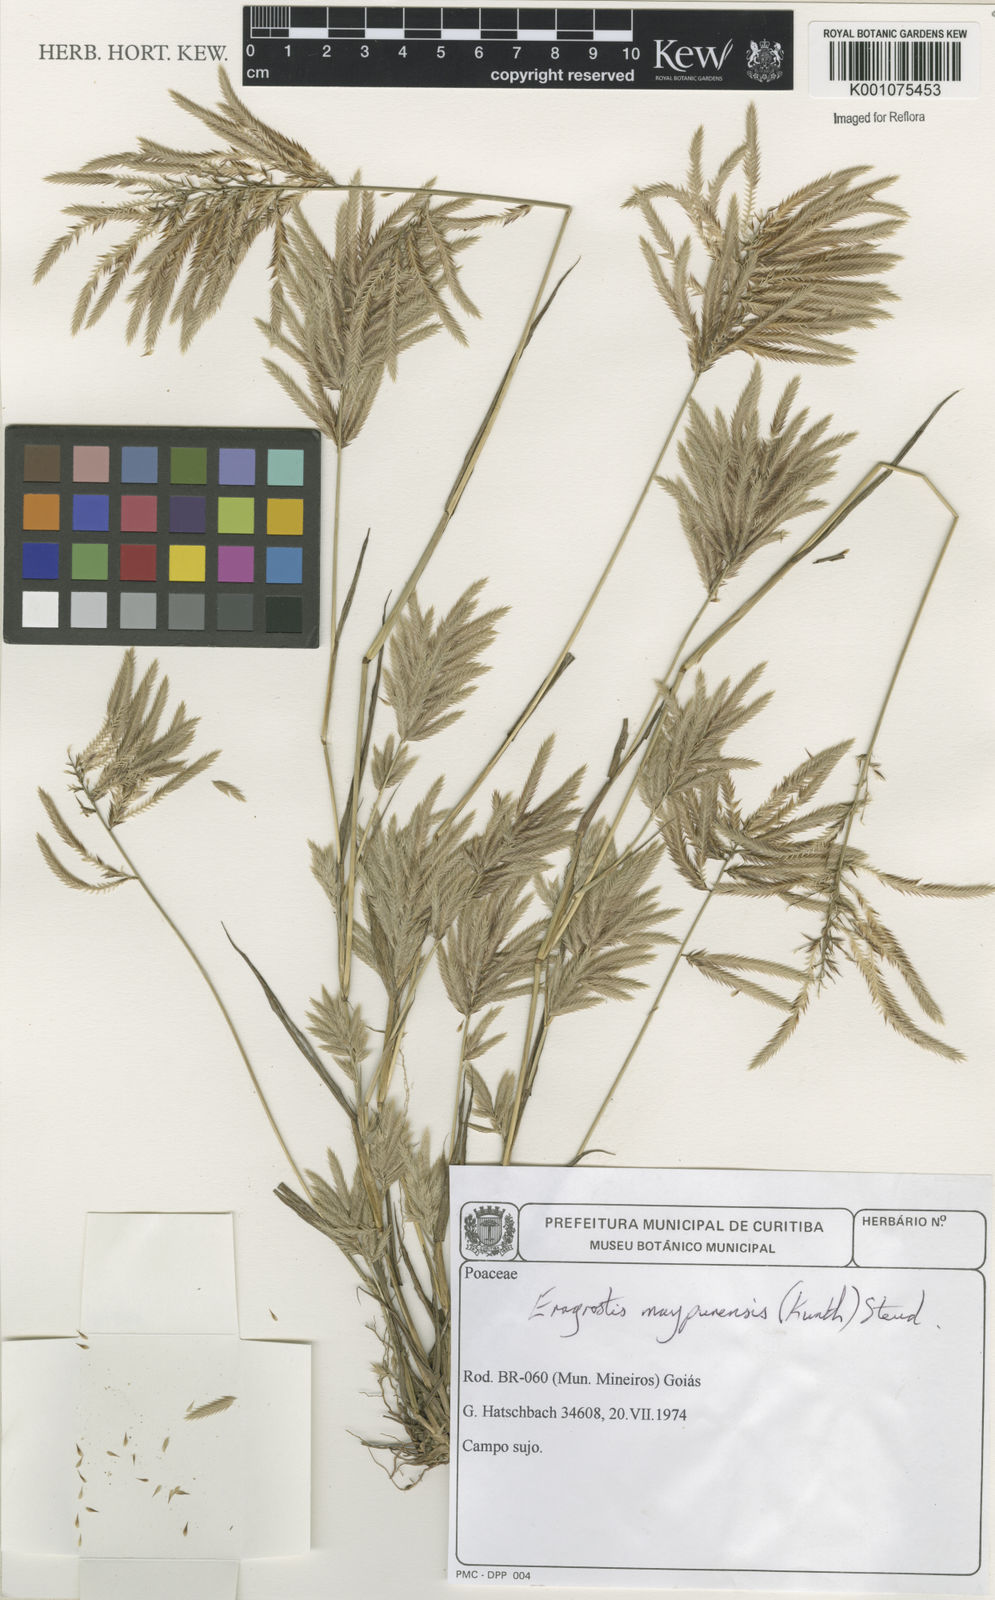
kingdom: Plantae
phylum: Tracheophyta
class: Liliopsida
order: Poales
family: Poaceae
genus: Eragrostis
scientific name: Eragrostis maypurensis
